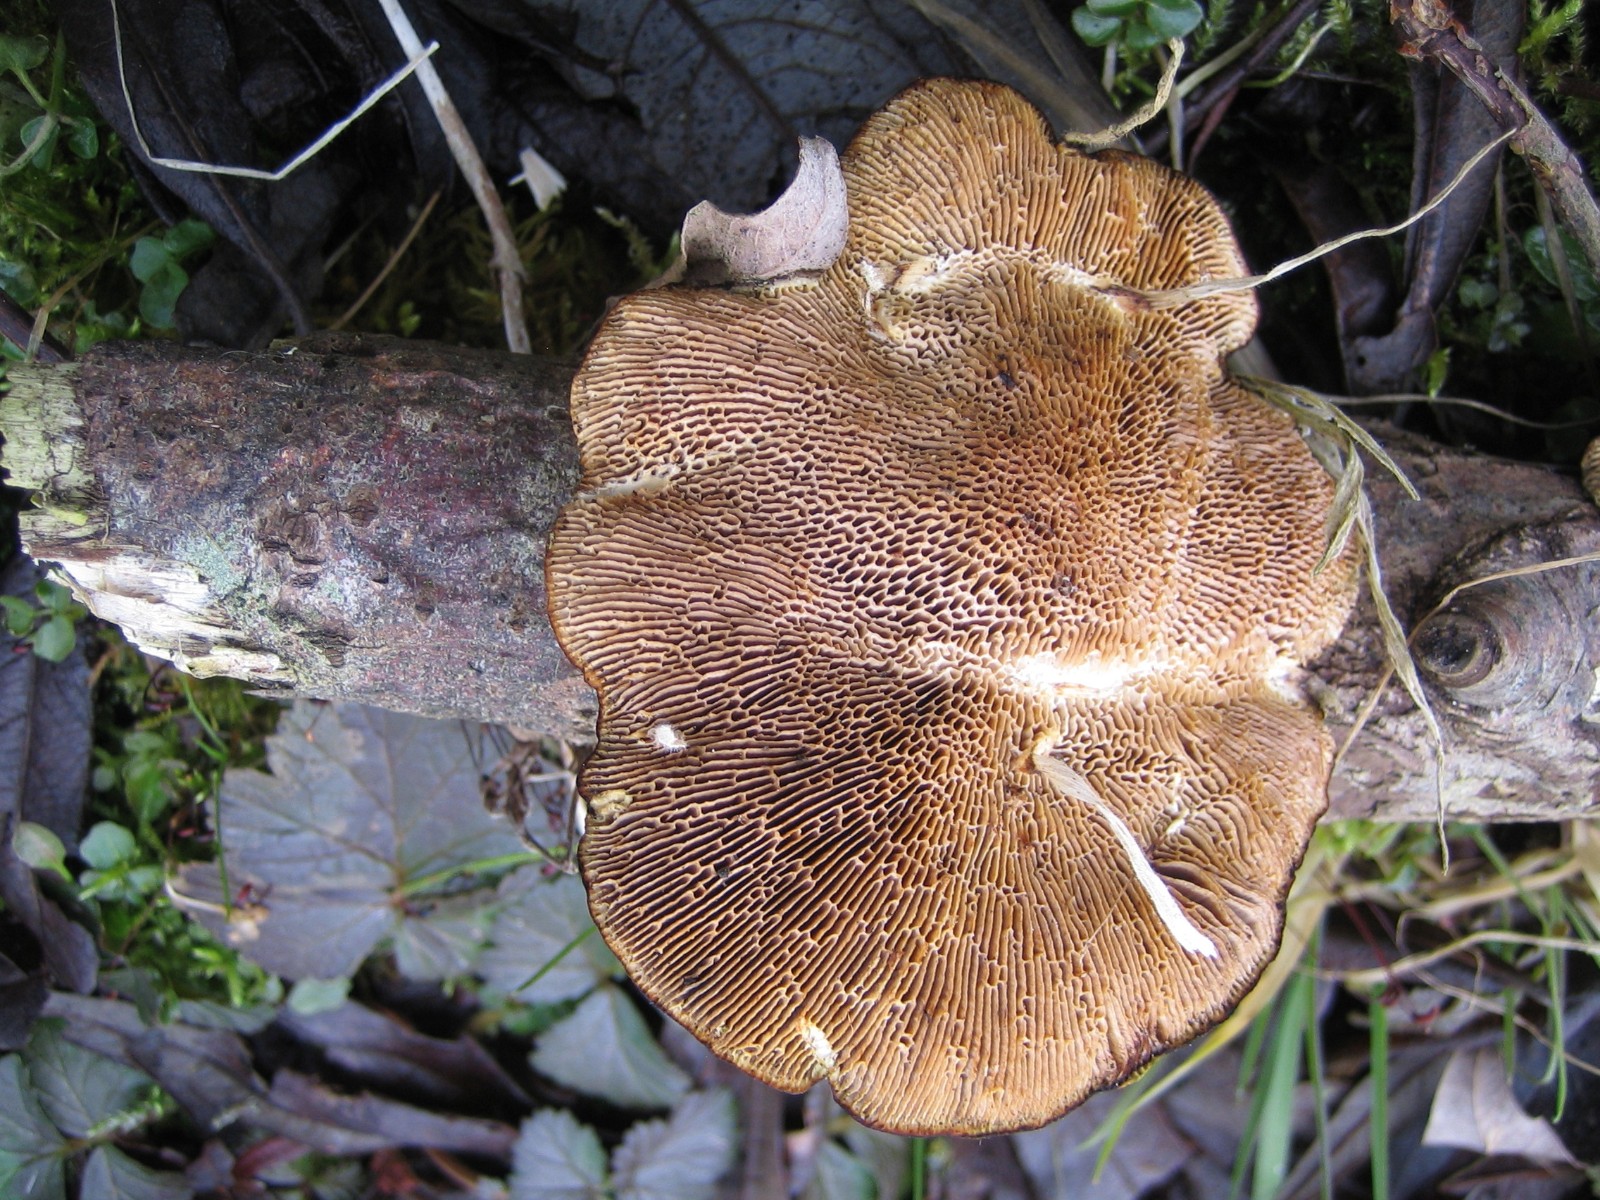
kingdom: Fungi
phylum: Basidiomycota
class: Agaricomycetes
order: Polyporales
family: Polyporaceae
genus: Daedaleopsis
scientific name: Daedaleopsis confragosa
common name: rødmende læderporesvamp
